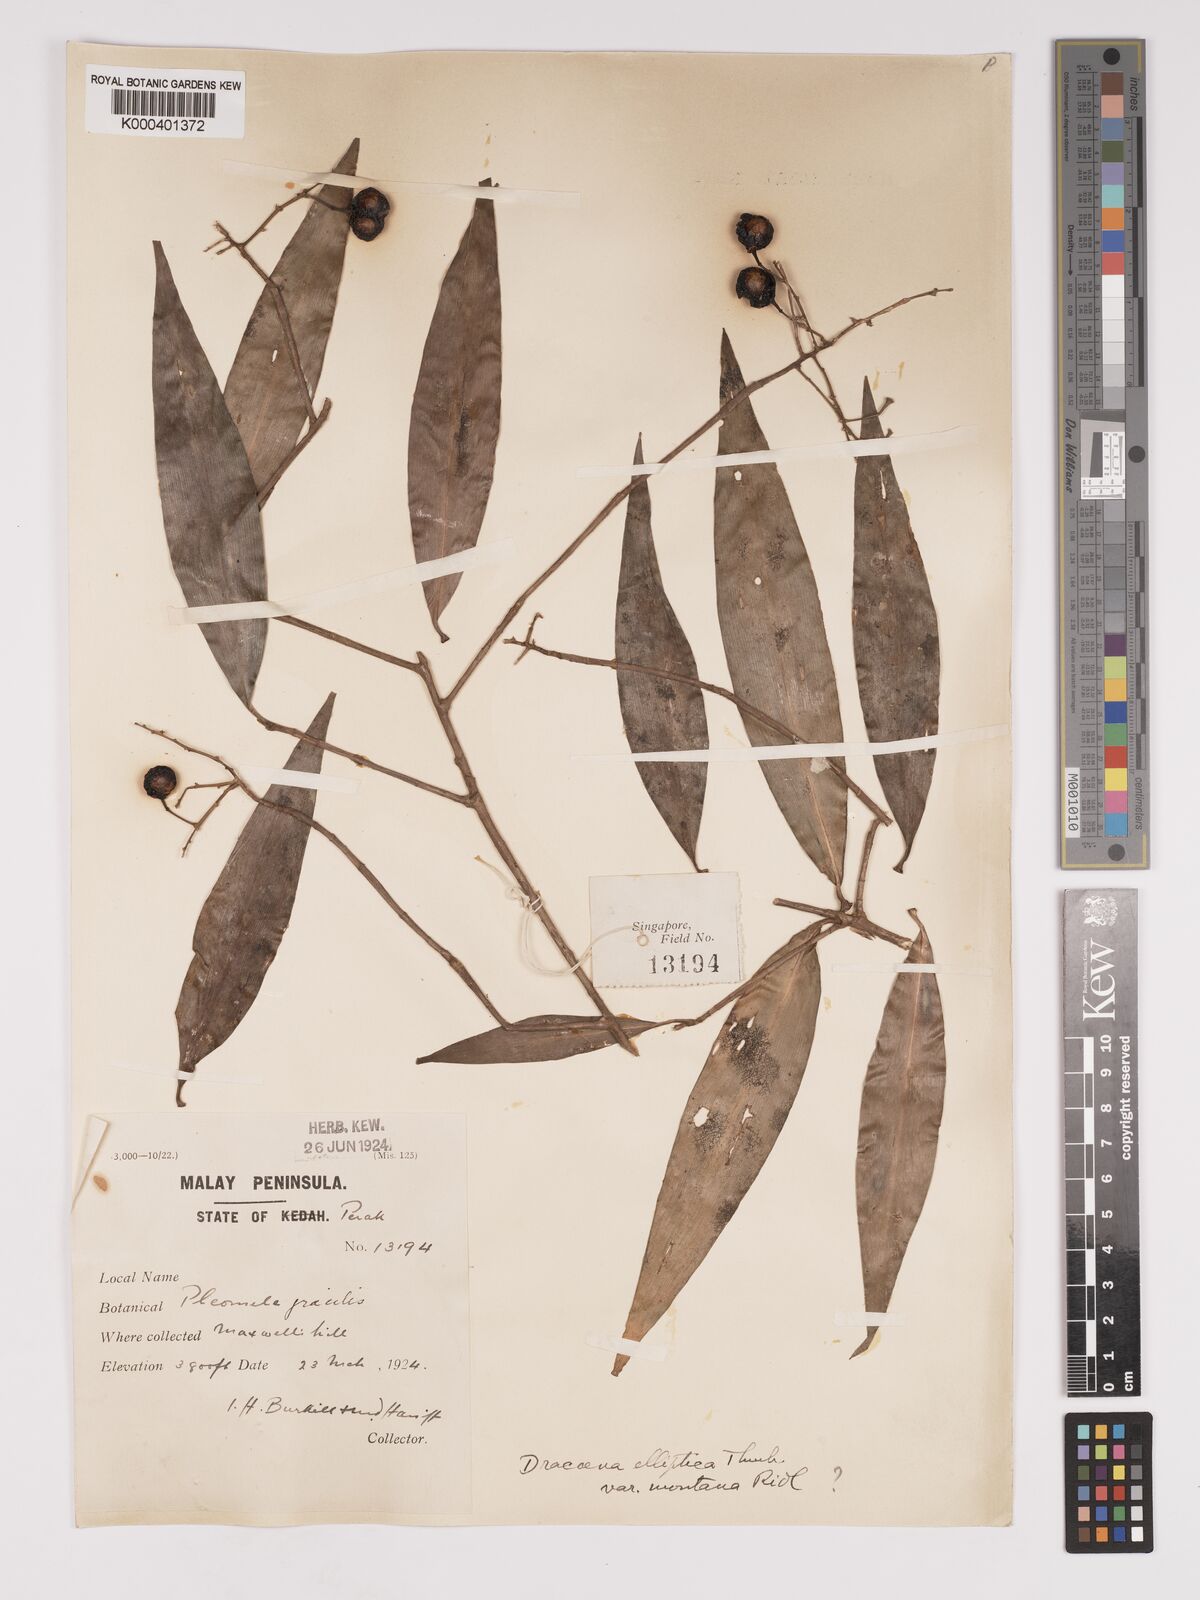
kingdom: Plantae
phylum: Tracheophyta
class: Liliopsida
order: Asparagales
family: Asparagaceae
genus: Dracaena
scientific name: Dracaena elliptica
